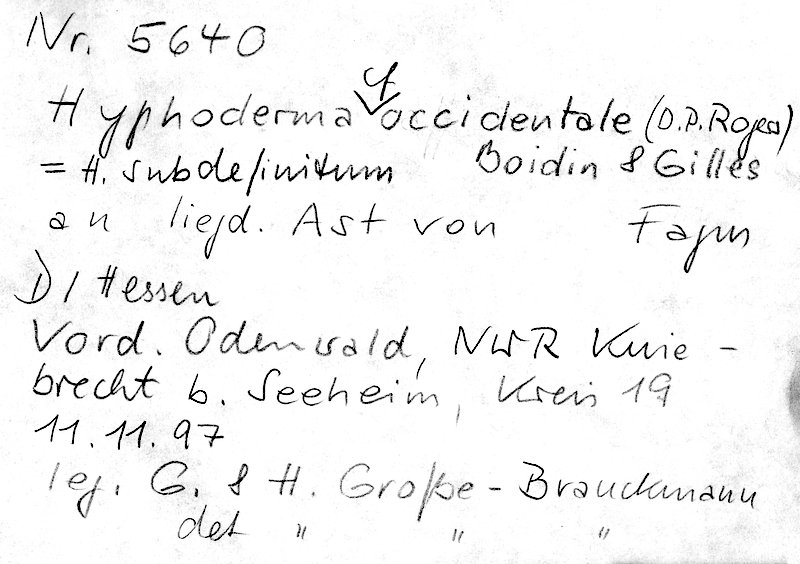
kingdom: Fungi
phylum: Basidiomycota
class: Agaricomycetes
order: Polyporales
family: Hyphodermataceae
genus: Hyphoderma
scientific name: Hyphoderma occidentale
